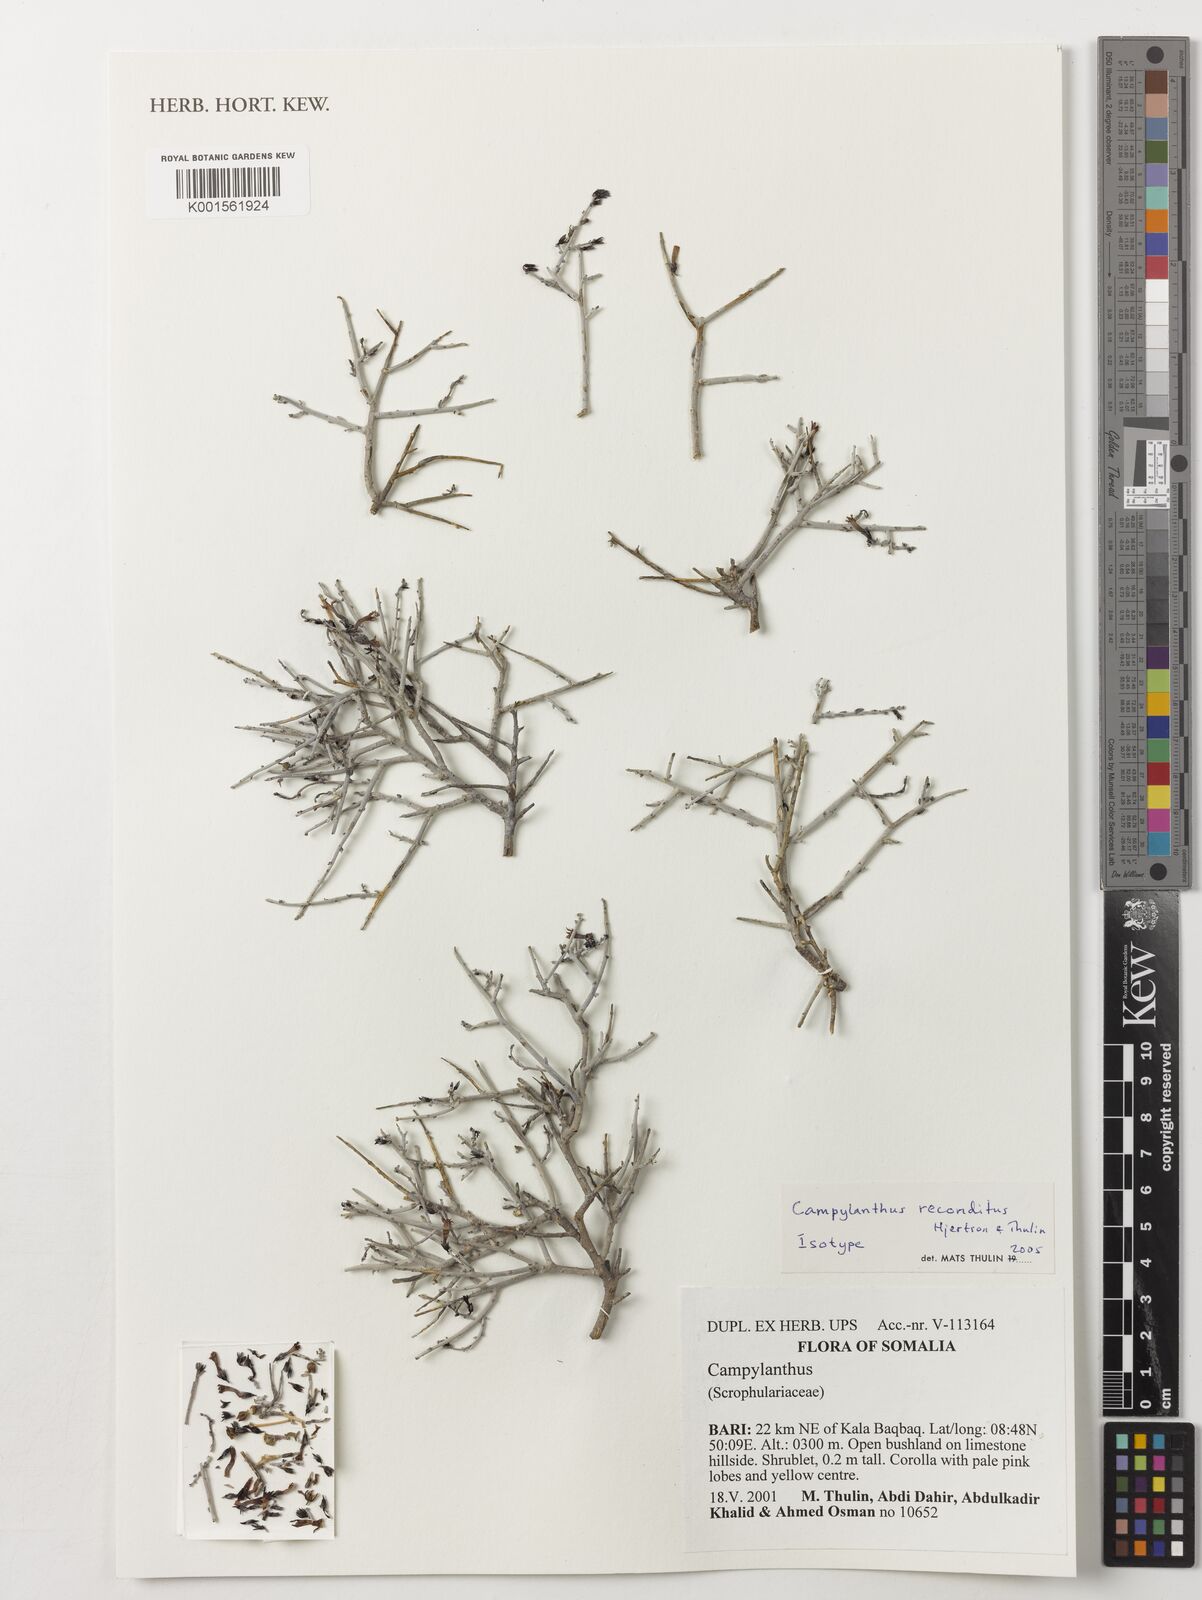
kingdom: Plantae
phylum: Tracheophyta
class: Magnoliopsida
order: Lamiales
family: Plantaginaceae
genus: Campylanthus
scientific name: Campylanthus reconditus
